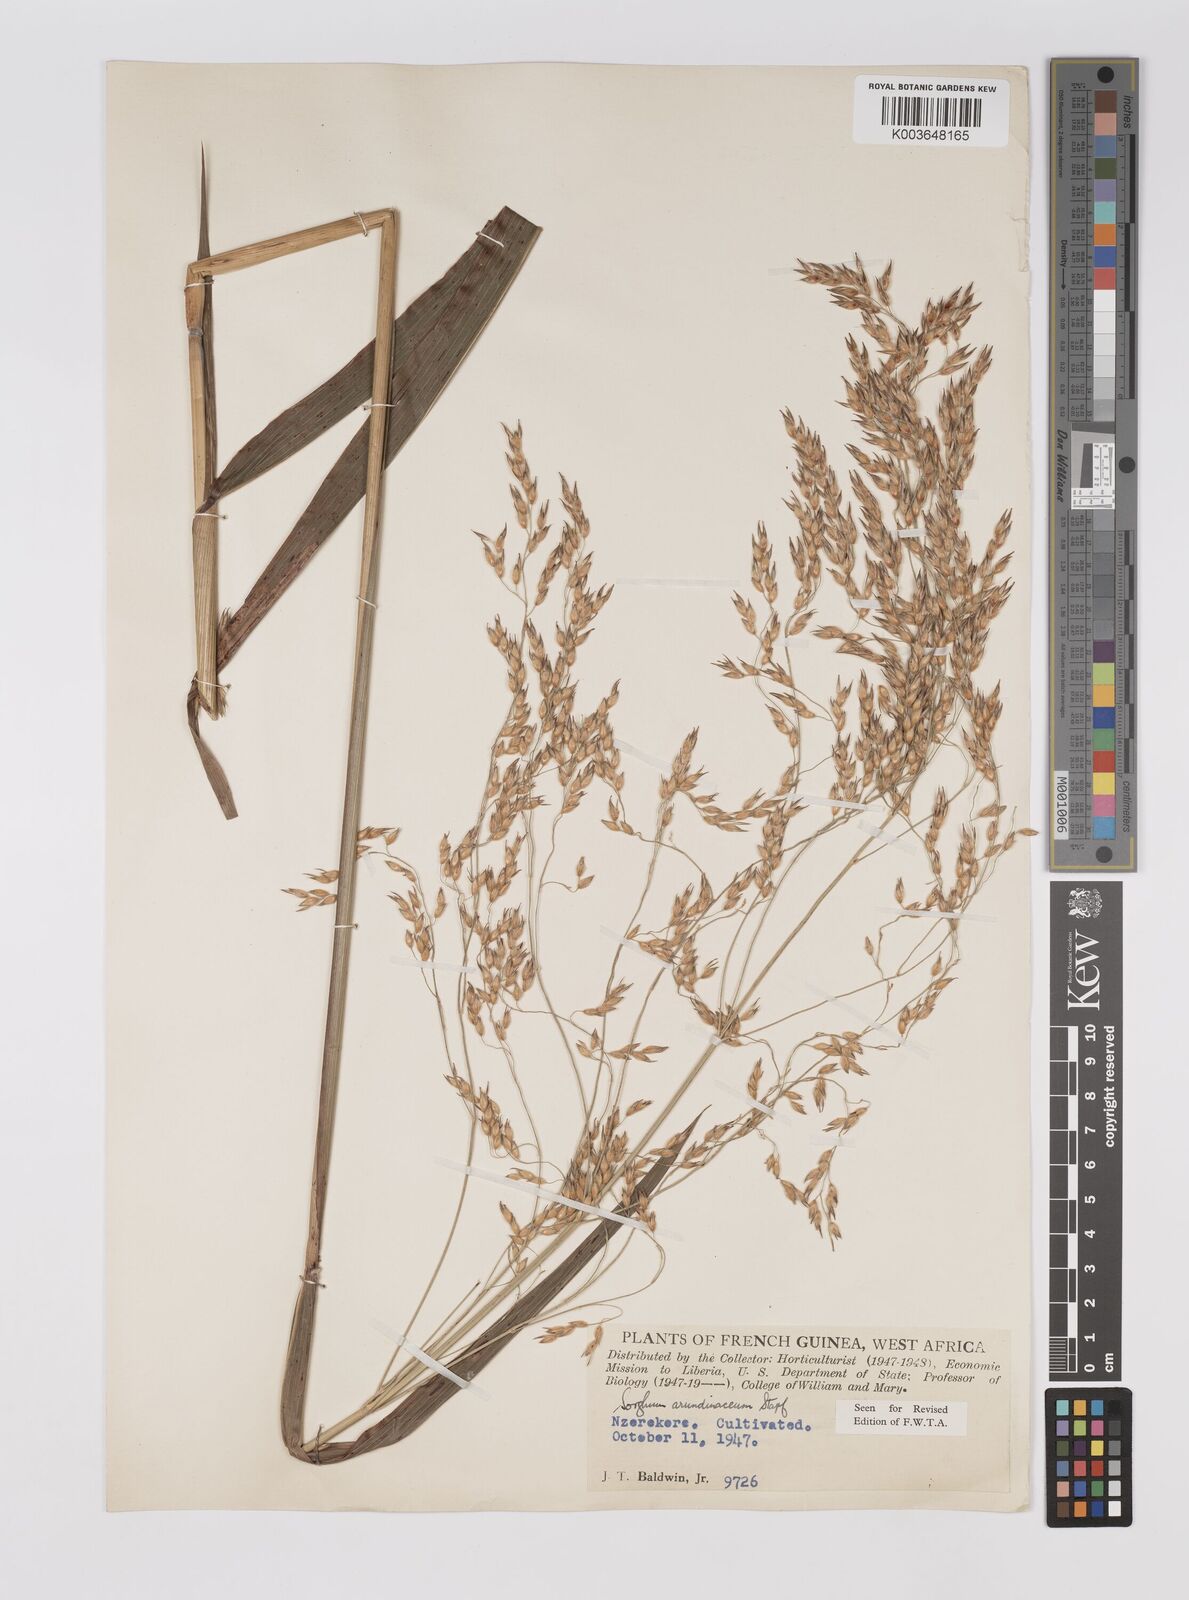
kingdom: Plantae
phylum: Tracheophyta
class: Liliopsida
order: Poales
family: Poaceae
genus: Sorghum
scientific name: Sorghum arundinaceum
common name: Sorghum
